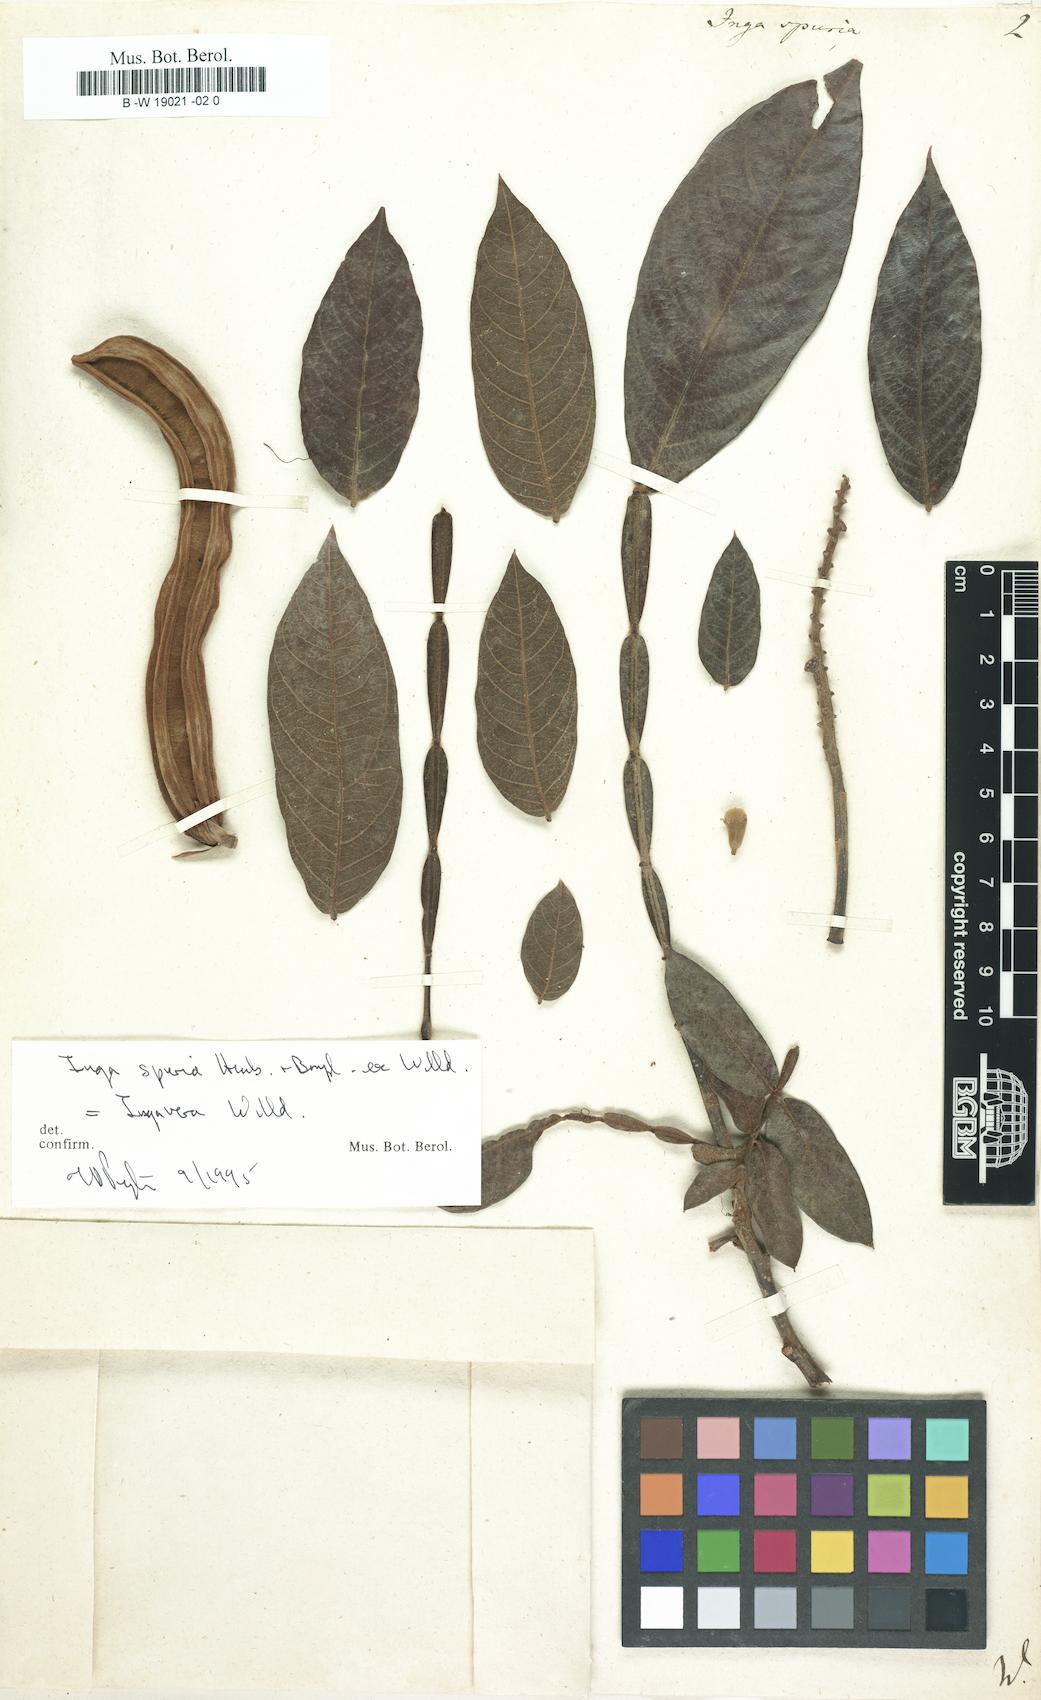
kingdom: Plantae
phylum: Tracheophyta
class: Magnoliopsida
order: Fabales
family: Fabaceae
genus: Inga
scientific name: Inga vera
